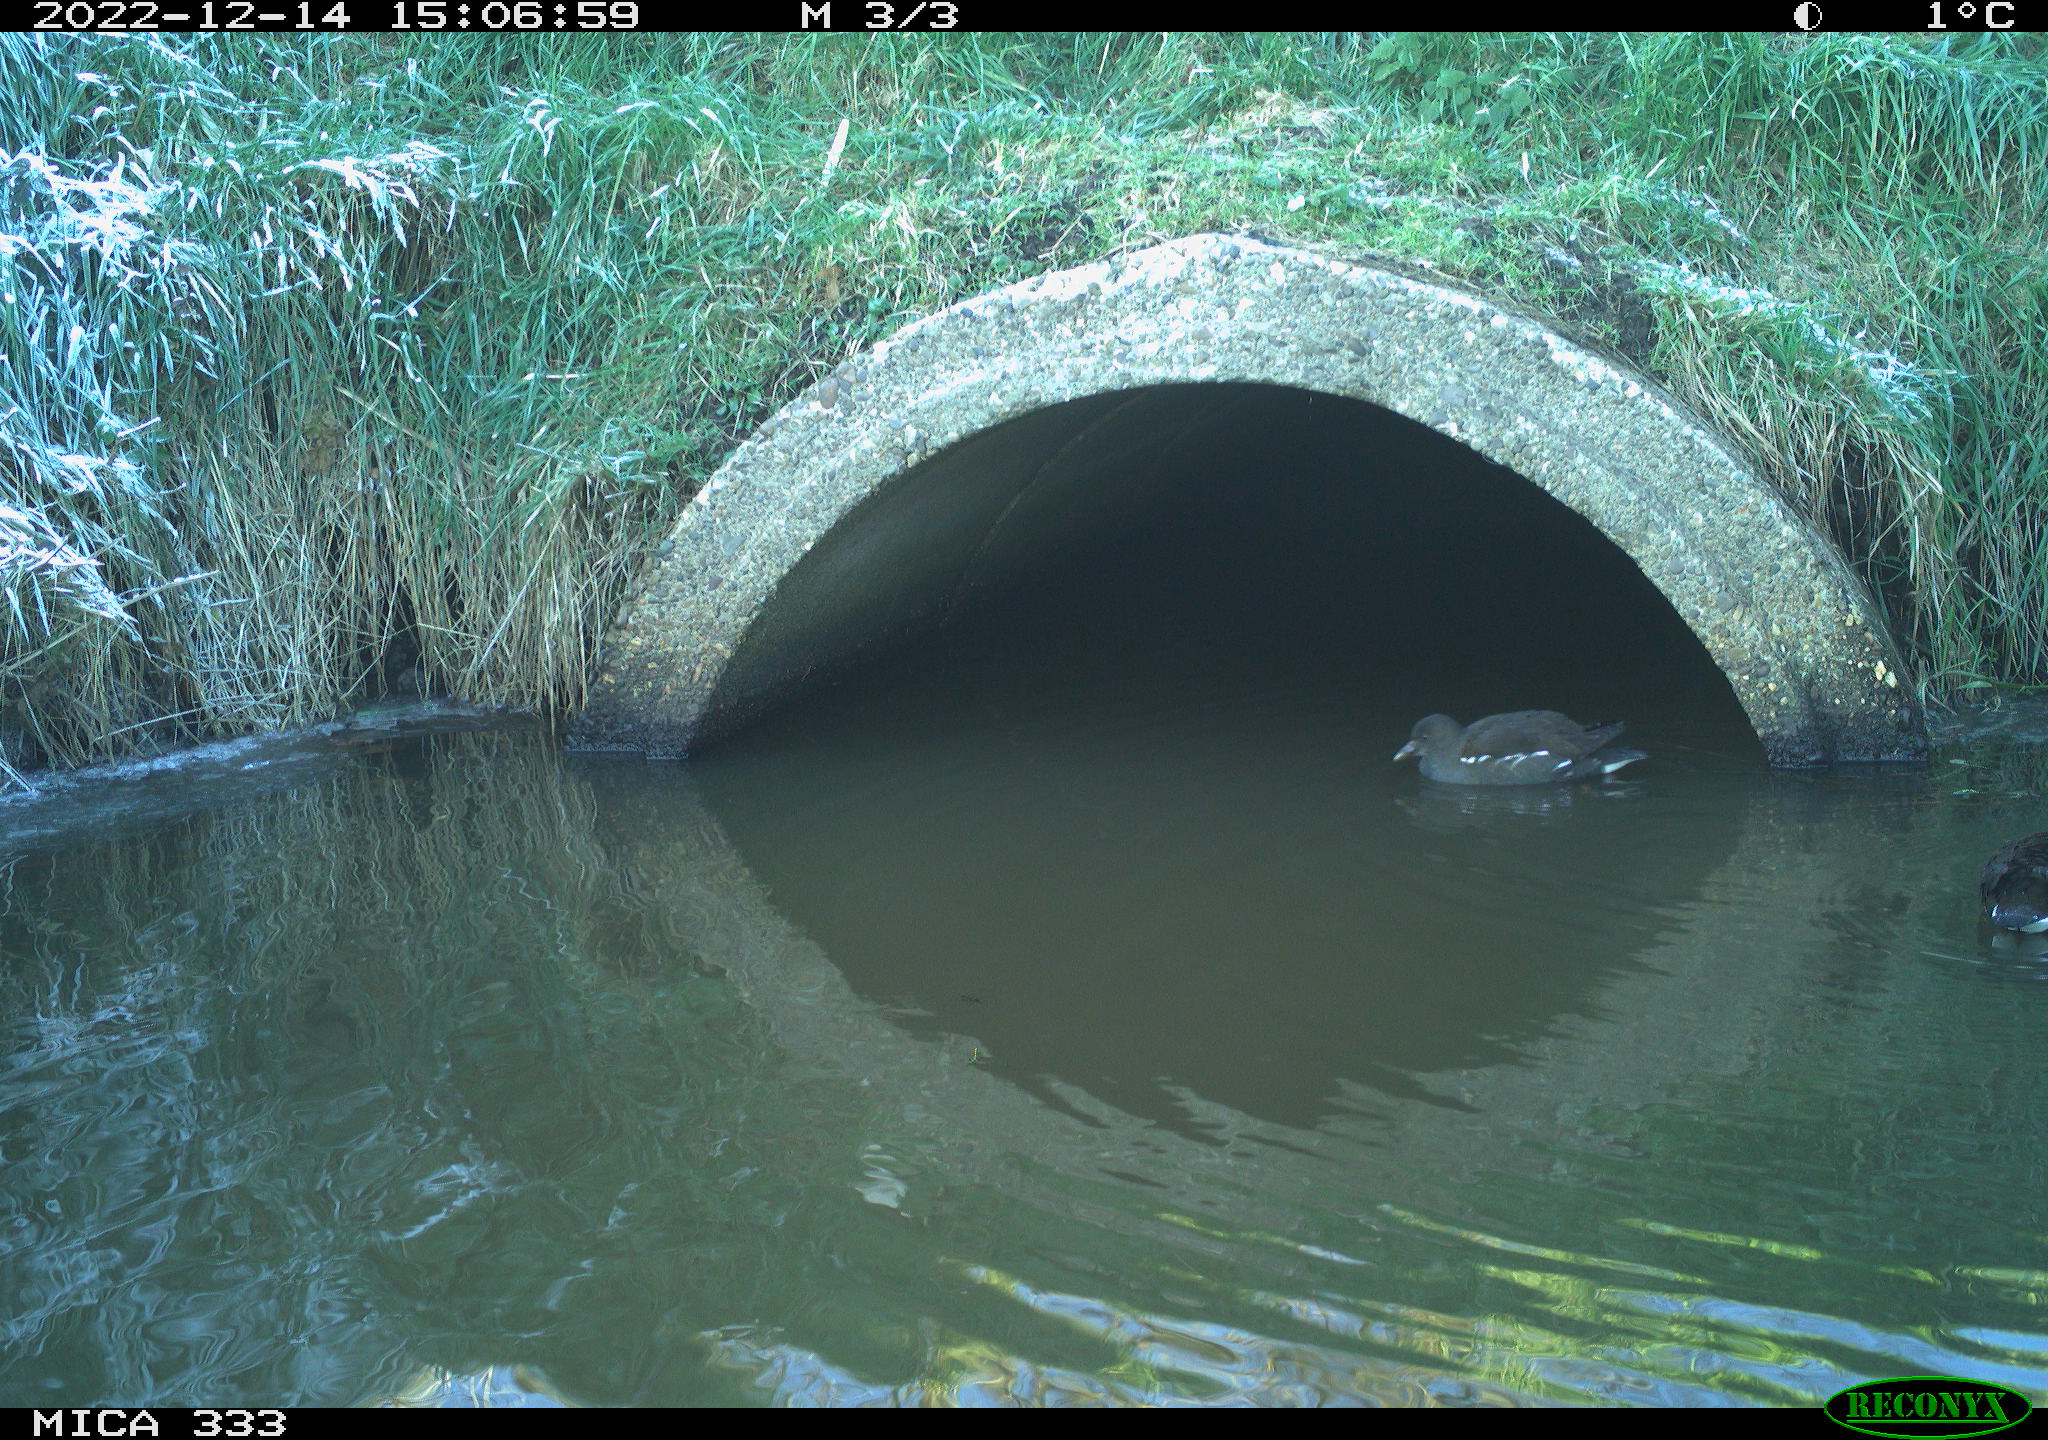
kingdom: Animalia
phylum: Chordata
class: Aves
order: Gruiformes
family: Rallidae
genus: Gallinula
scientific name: Gallinula chloropus
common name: Common moorhen
